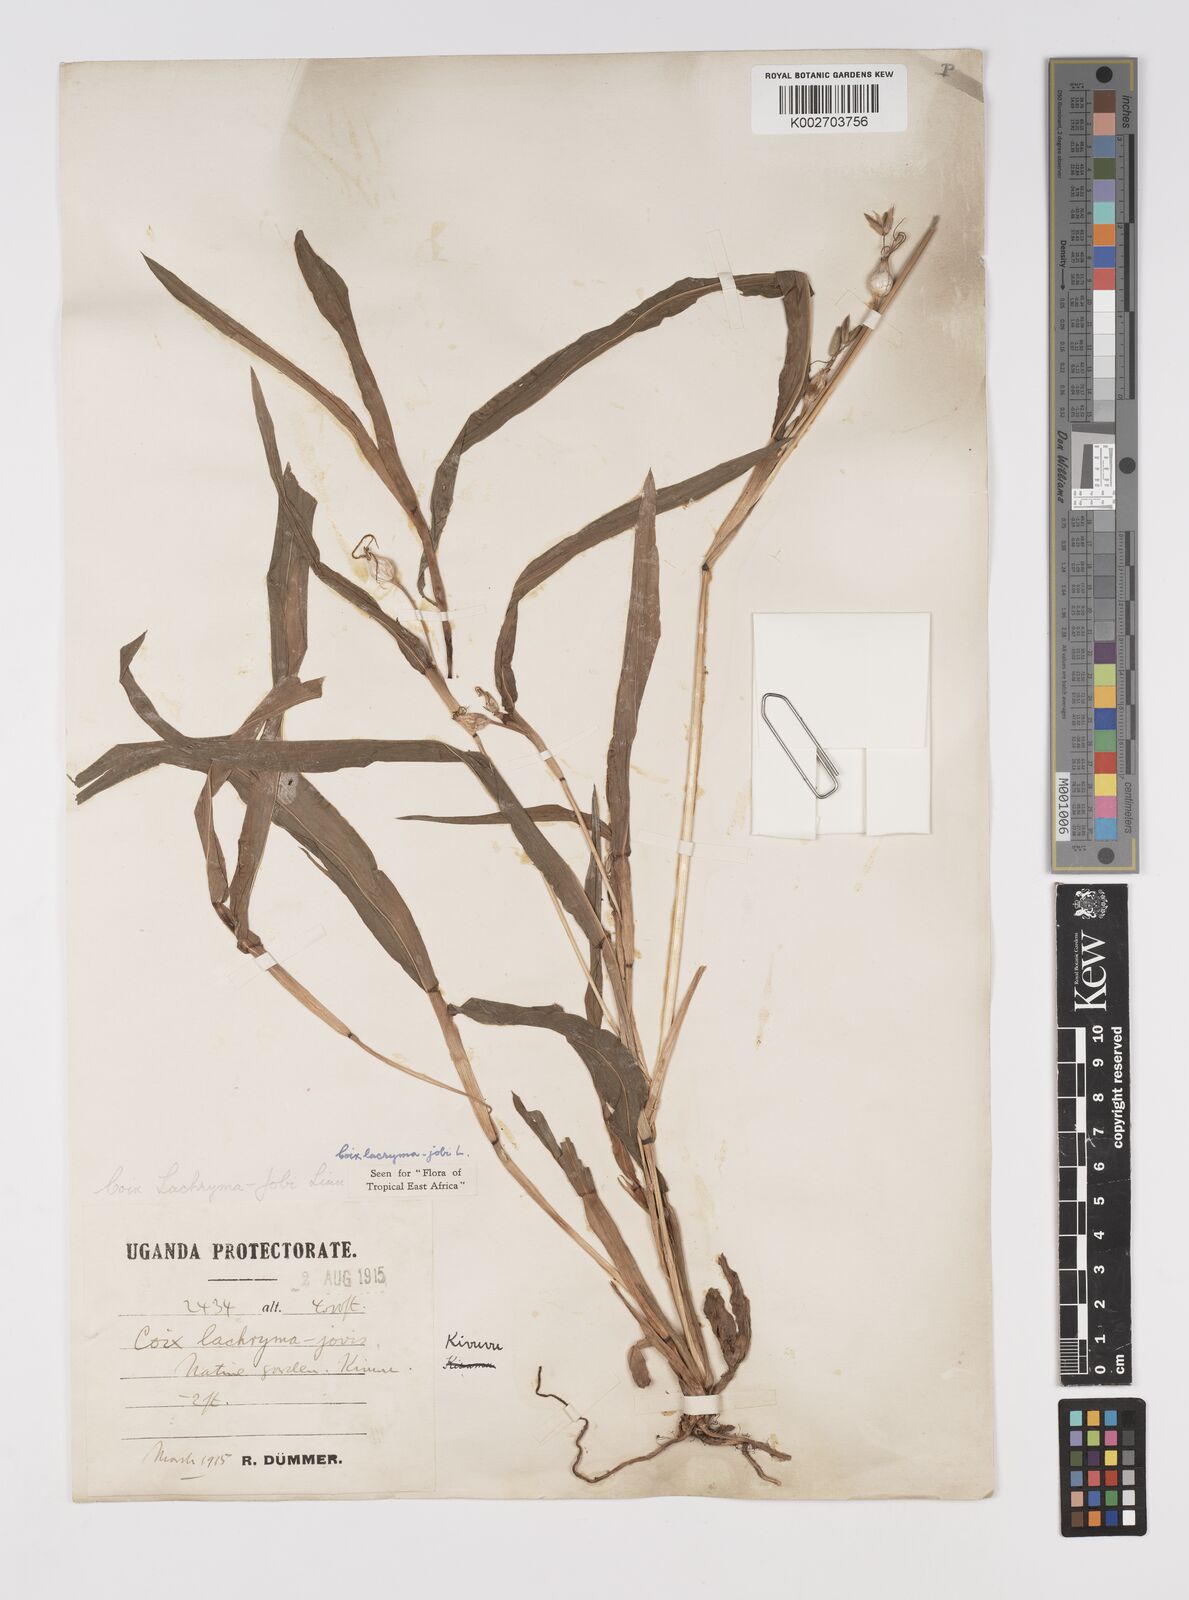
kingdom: Plantae
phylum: Tracheophyta
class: Liliopsida
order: Poales
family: Poaceae
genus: Coix
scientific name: Coix lacryma-jobi
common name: Job's tears
